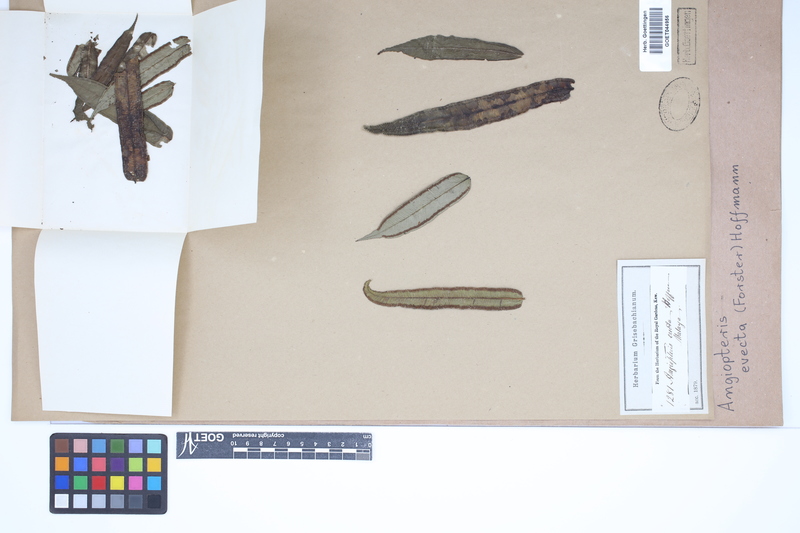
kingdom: Plantae
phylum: Tracheophyta
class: Polypodiopsida
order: Marattiales
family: Marattiaceae
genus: Angiopteris
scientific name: Angiopteris evecta
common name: Mule's-foot fern
